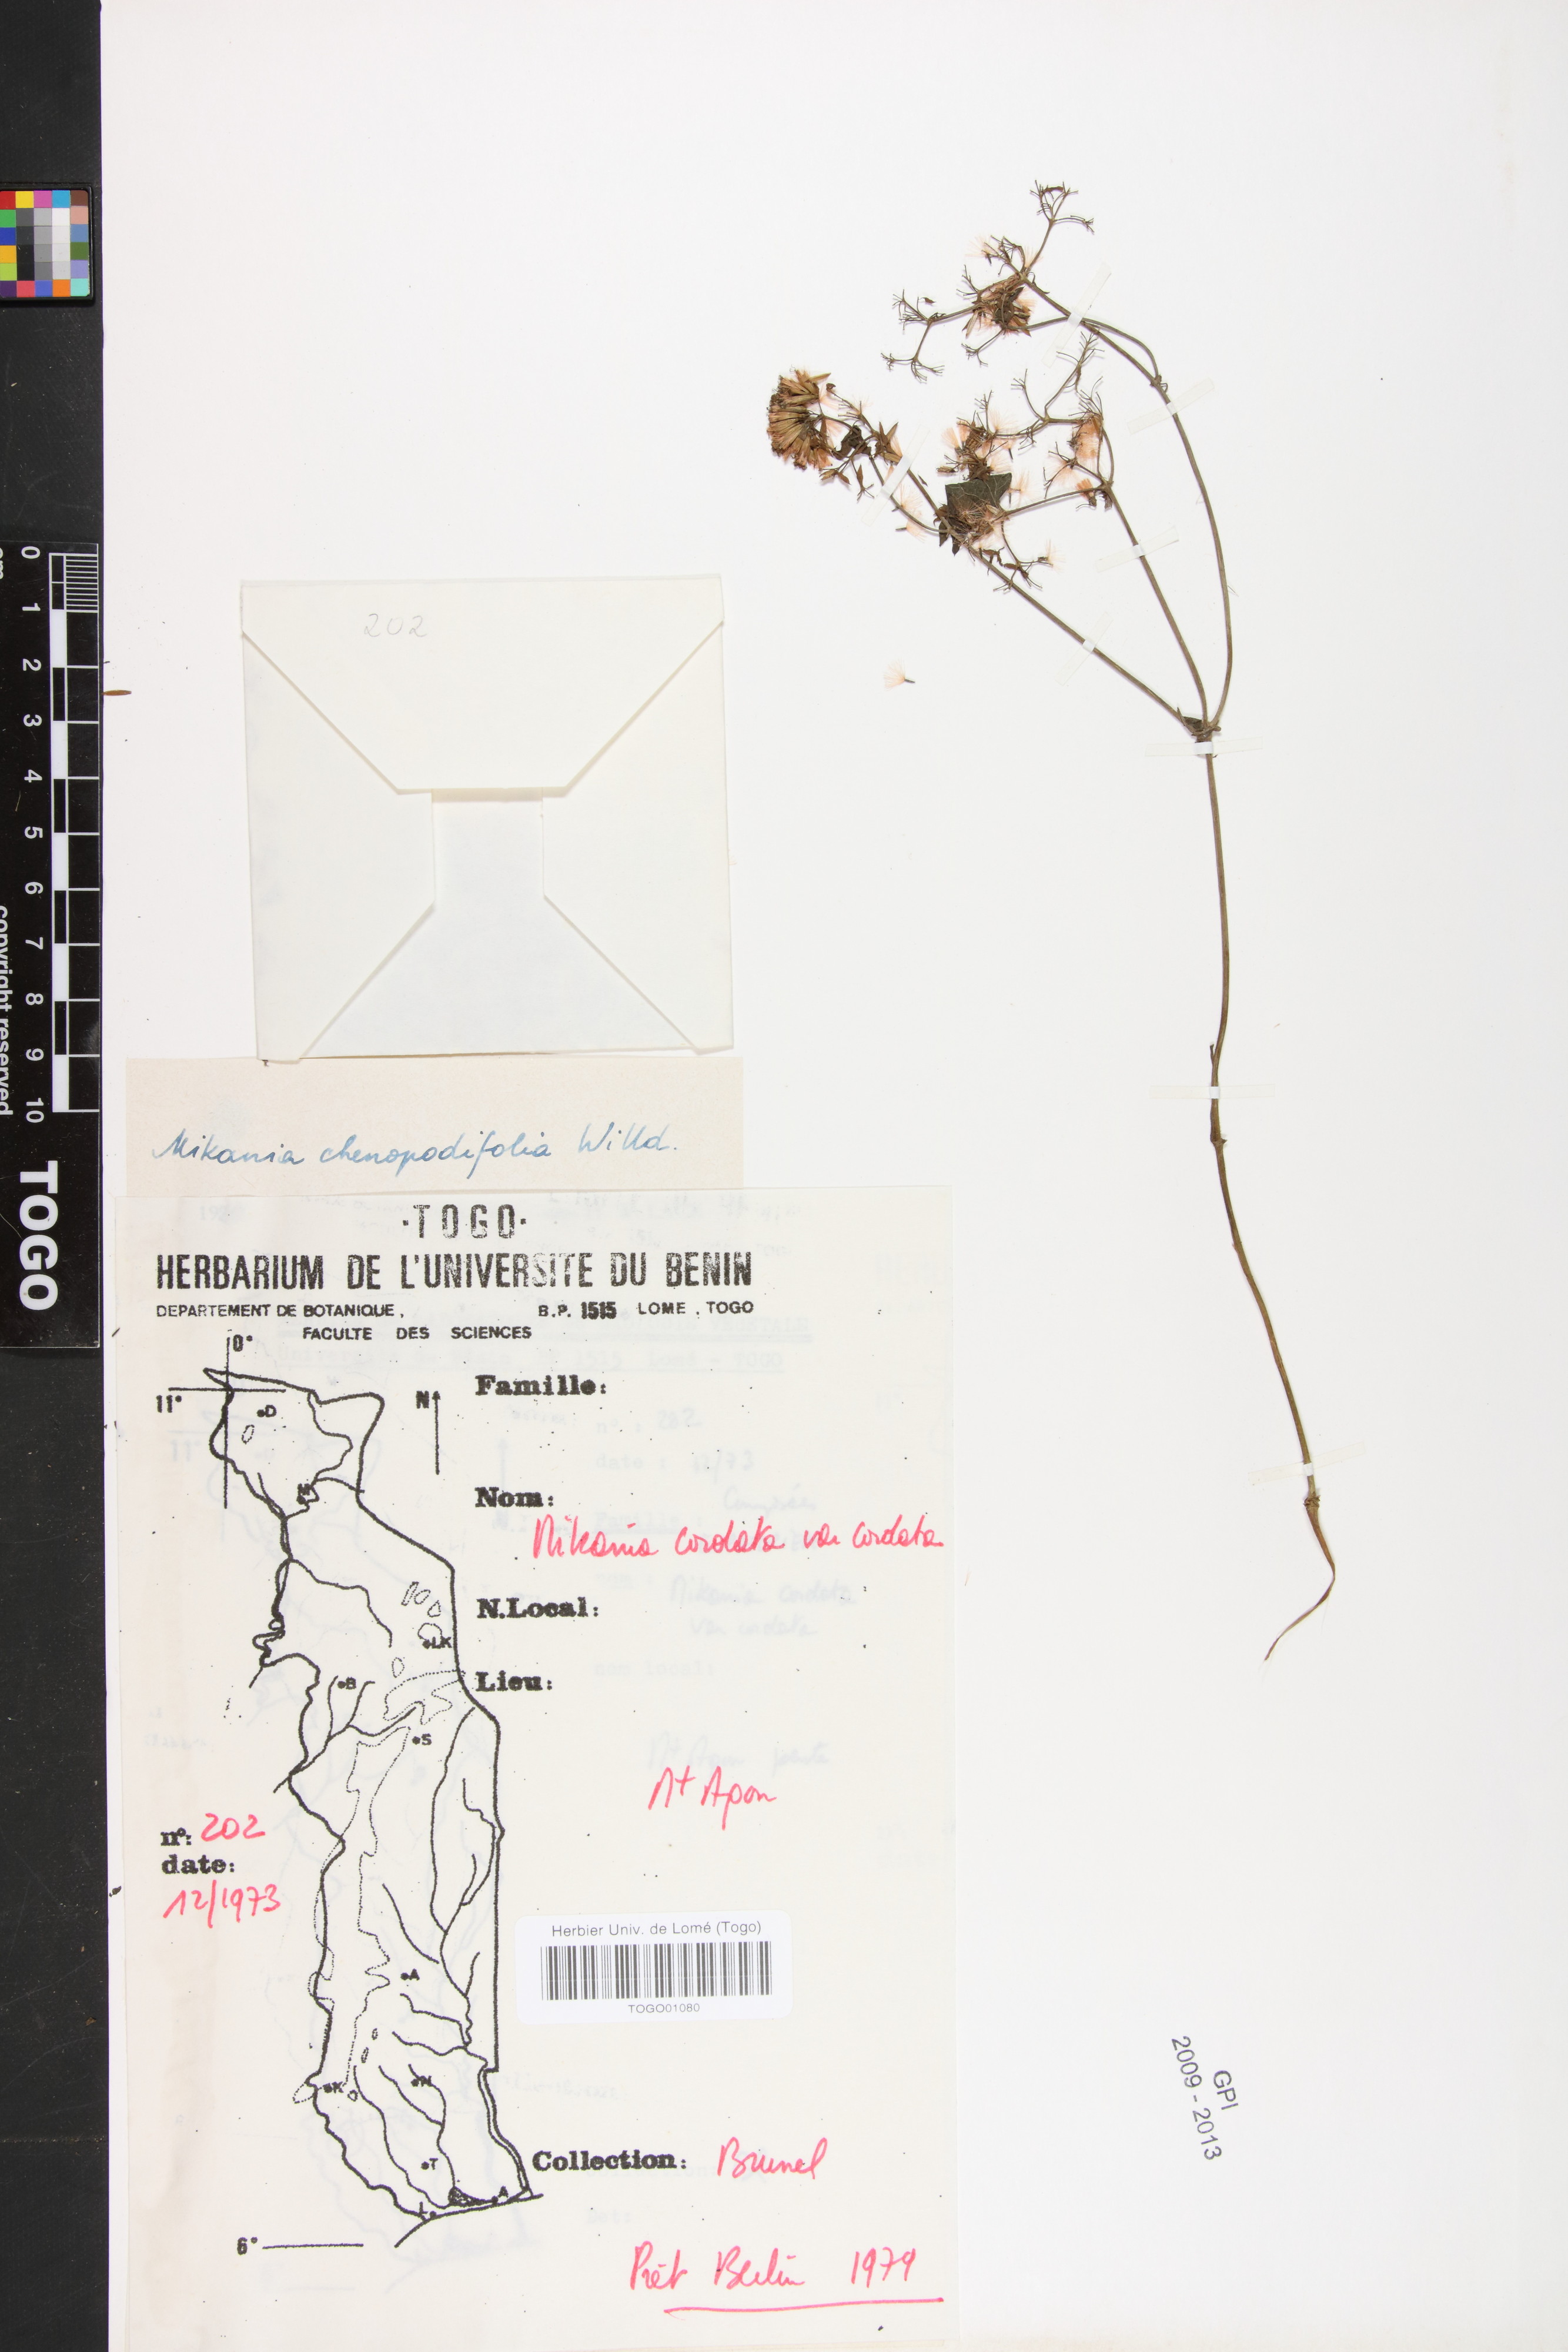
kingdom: Plantae
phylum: Tracheophyta
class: Magnoliopsida
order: Asterales
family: Asteraceae
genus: Mikania
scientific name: Mikania cordata
